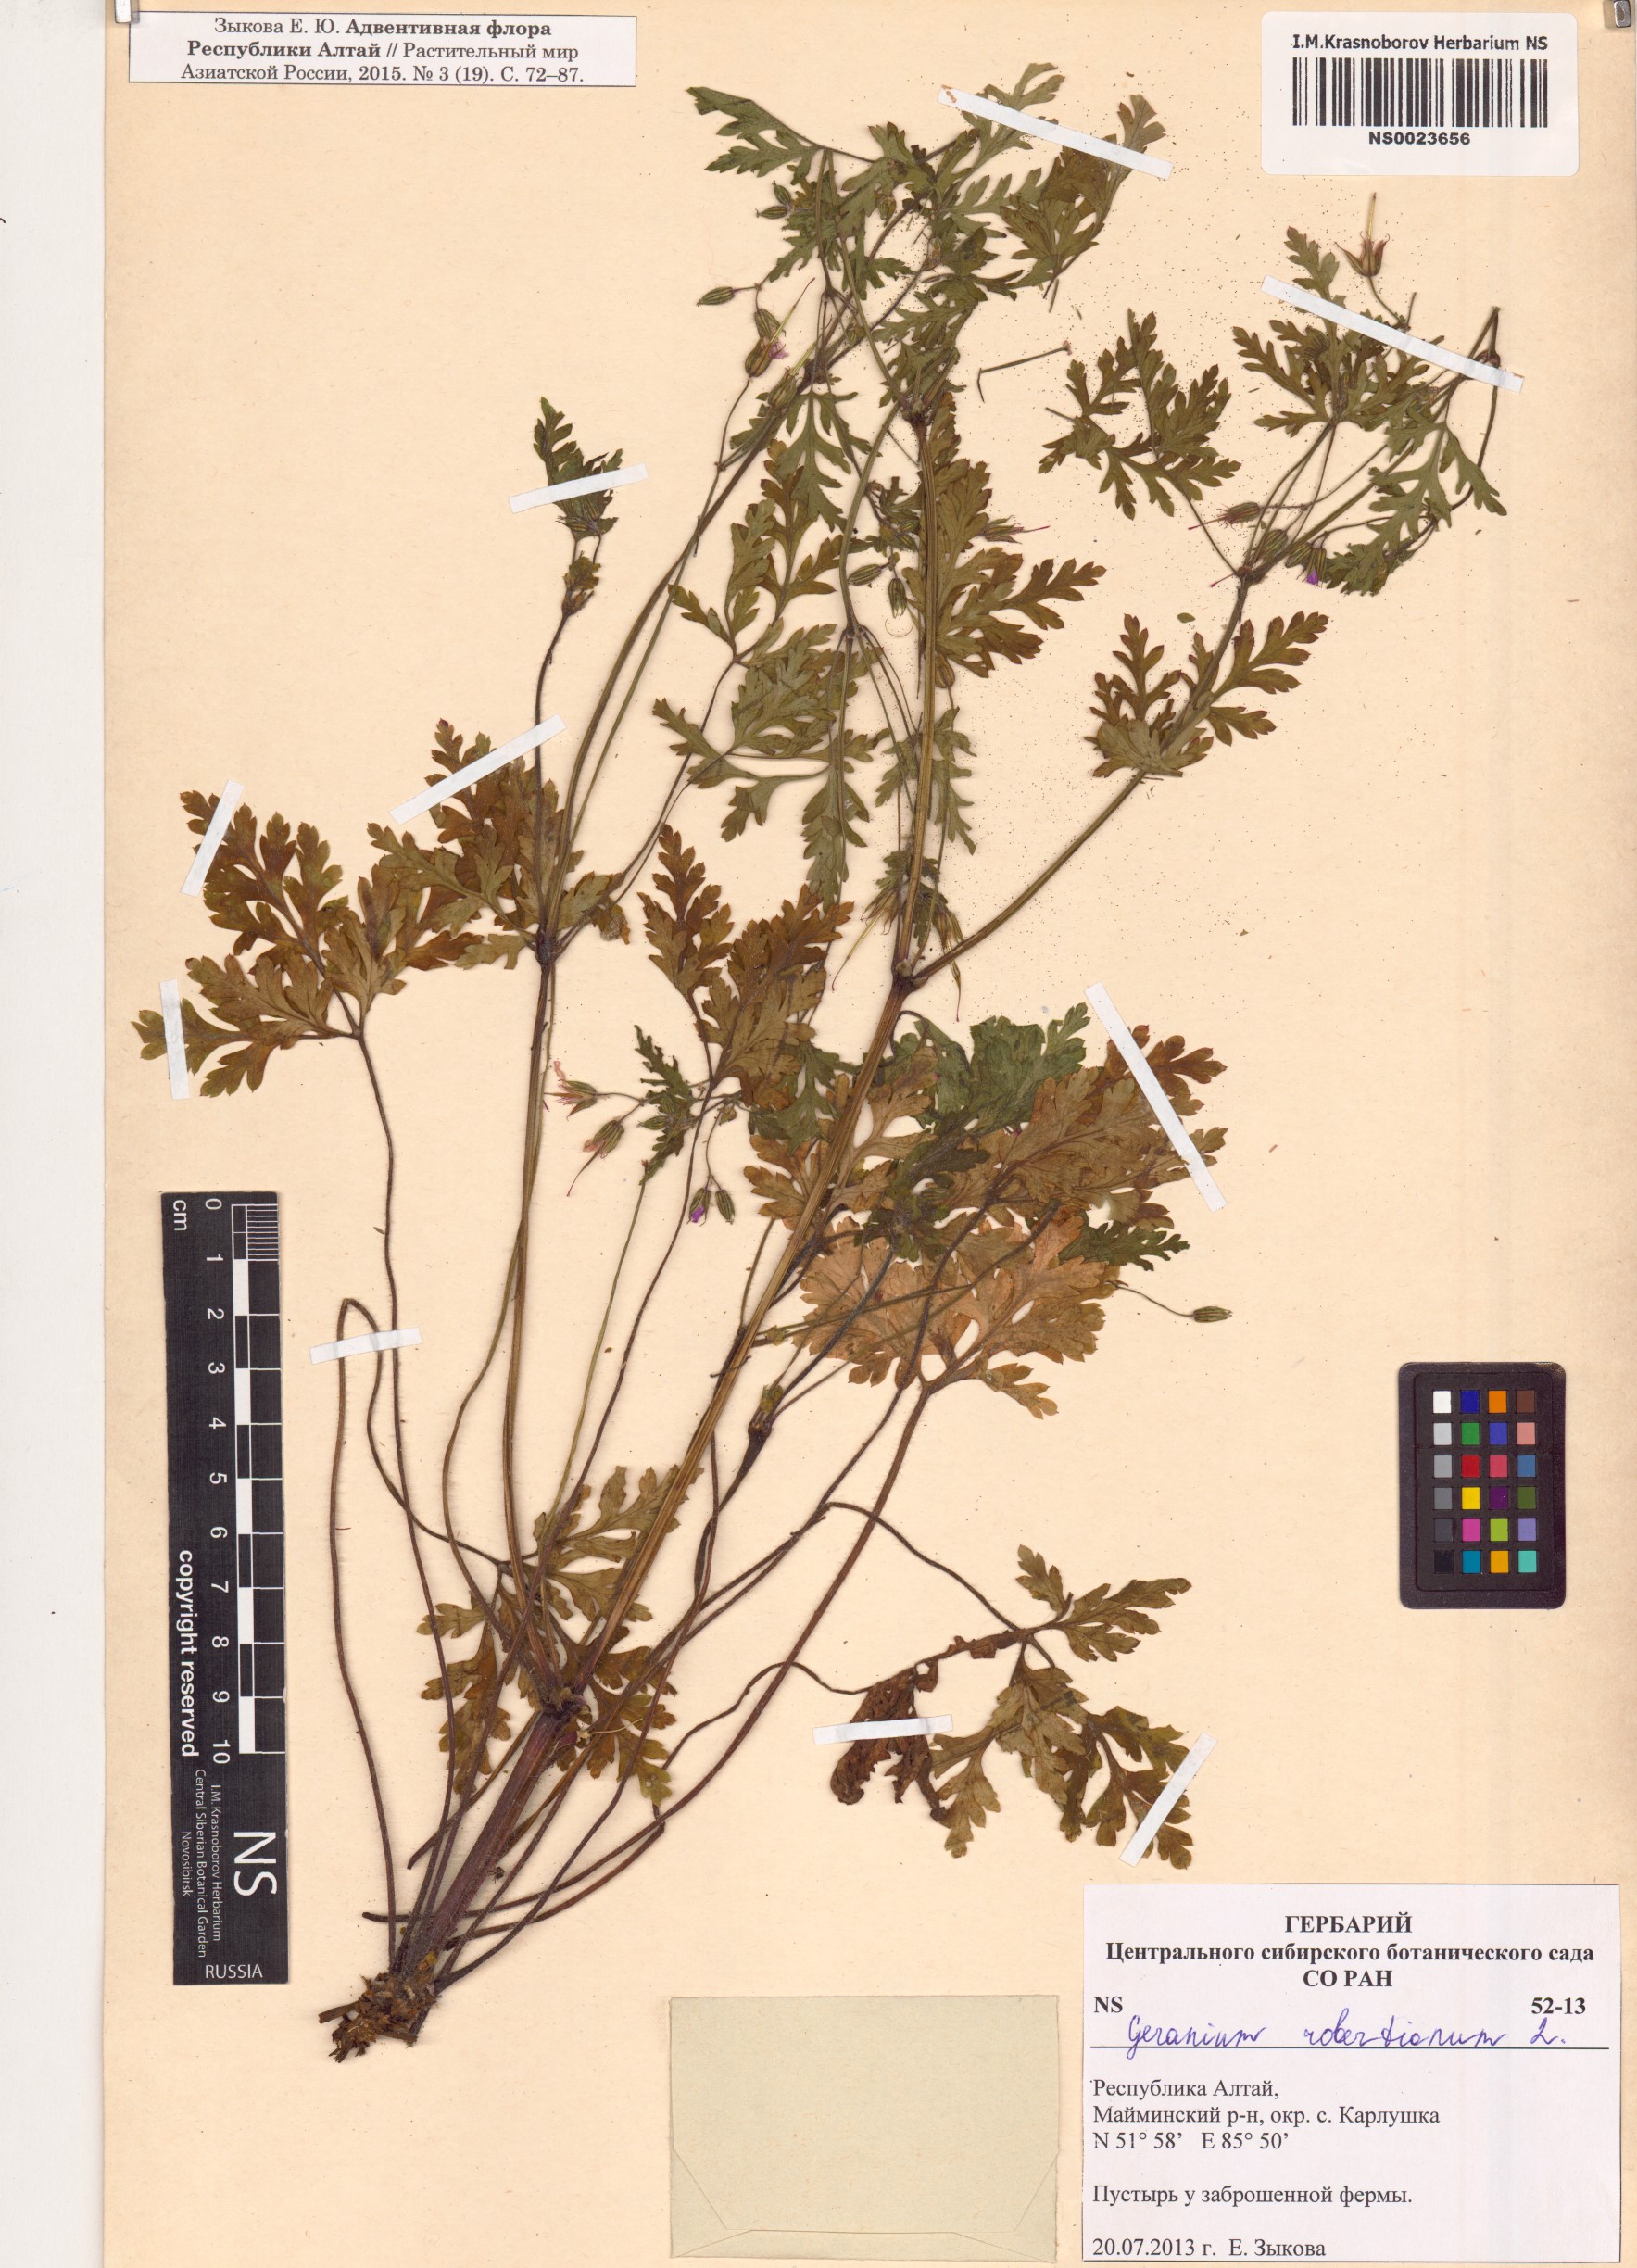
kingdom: Plantae
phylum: Tracheophyta
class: Magnoliopsida
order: Geraniales
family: Geraniaceae
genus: Geranium
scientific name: Geranium robertianum
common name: Herb-robert
